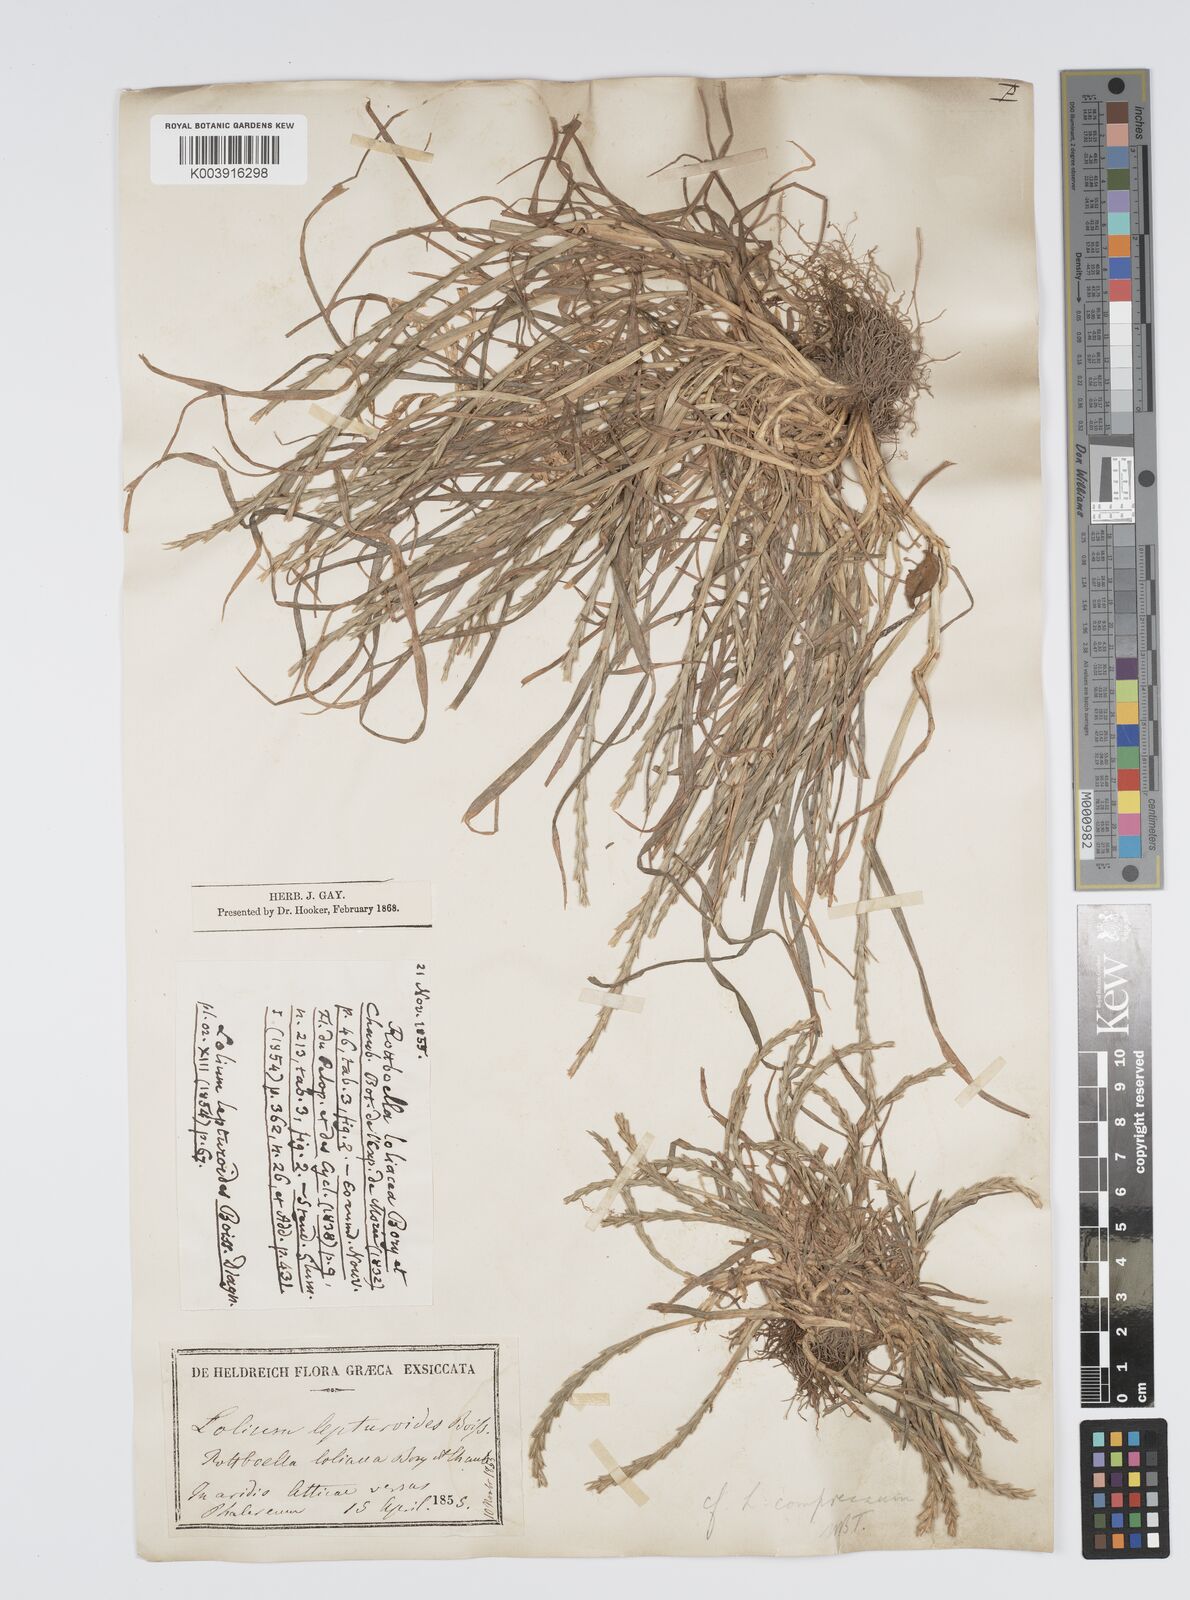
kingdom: Plantae
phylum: Tracheophyta
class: Liliopsida
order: Poales
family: Poaceae
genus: Lolium
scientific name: Lolium rigidum
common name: Wimmera ryegrass
